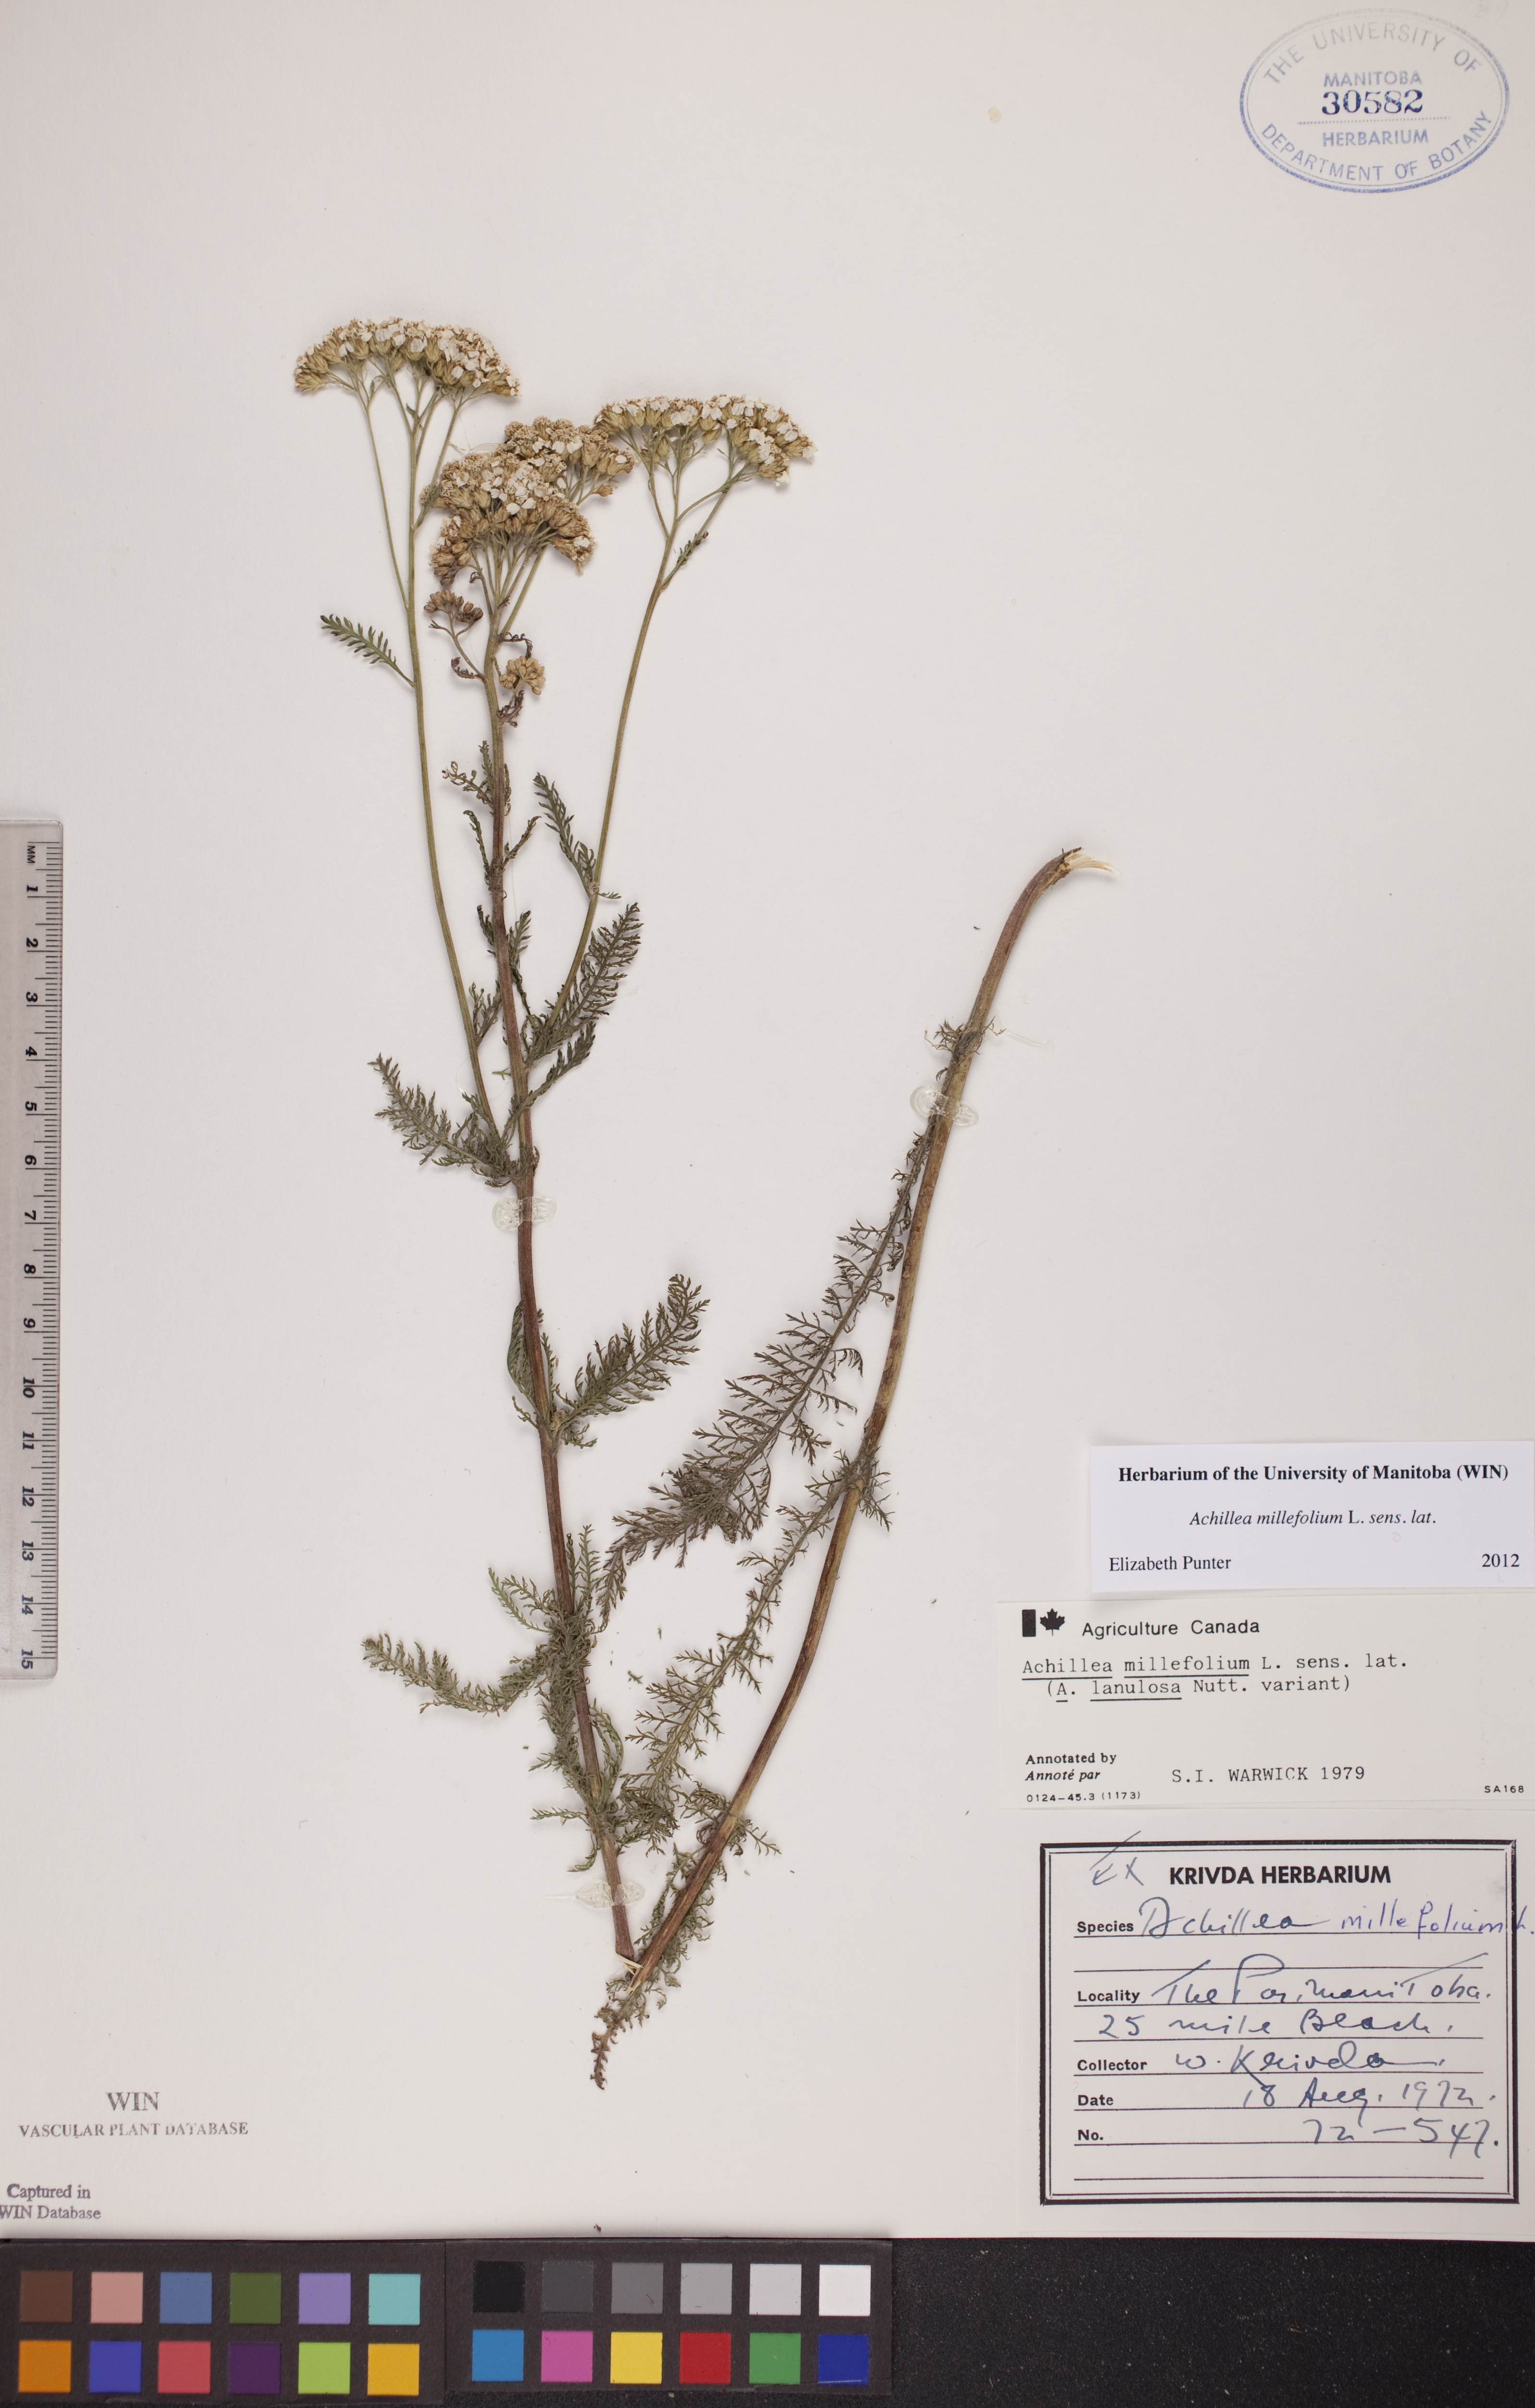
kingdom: Plantae
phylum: Tracheophyta
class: Magnoliopsida
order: Asterales
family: Asteraceae
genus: Achillea
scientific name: Achillea millefolium
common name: Yarrow
